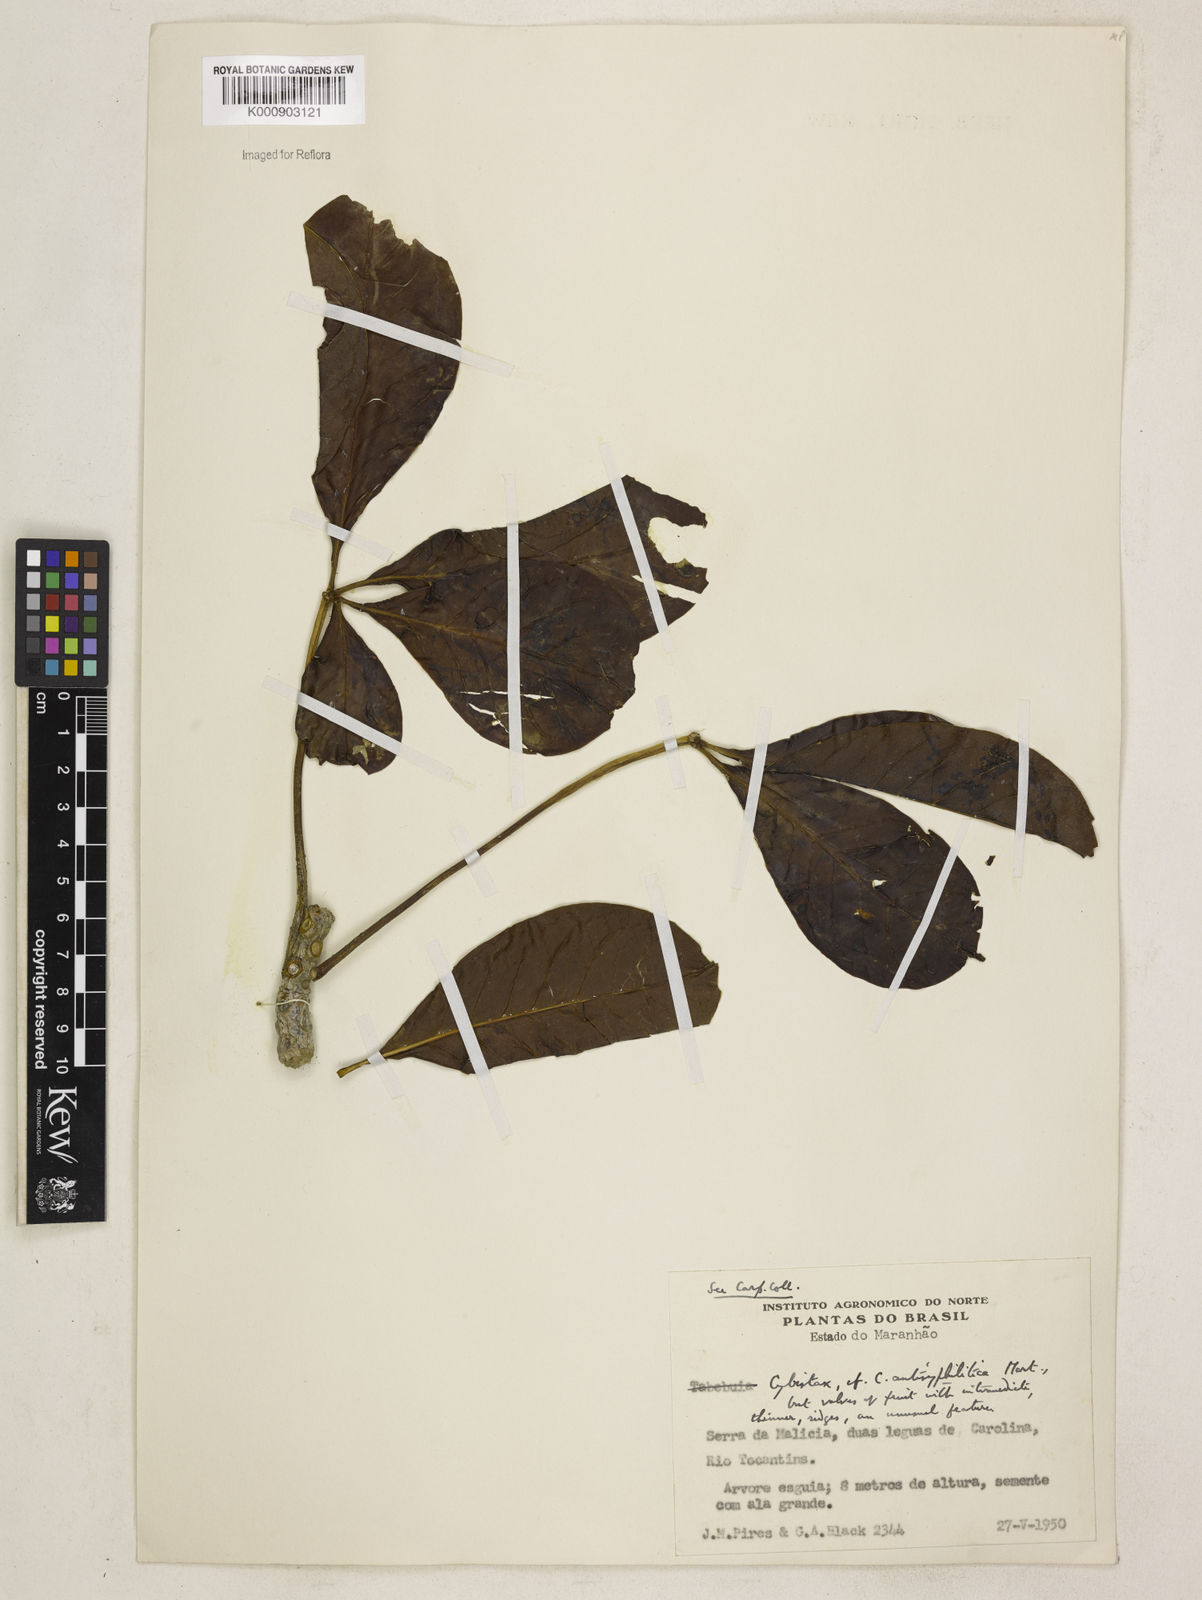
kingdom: Plantae
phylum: Tracheophyta
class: Magnoliopsida
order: Lamiales
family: Bignoniaceae
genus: Cybistax
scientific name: Cybistax antisyphilitica
